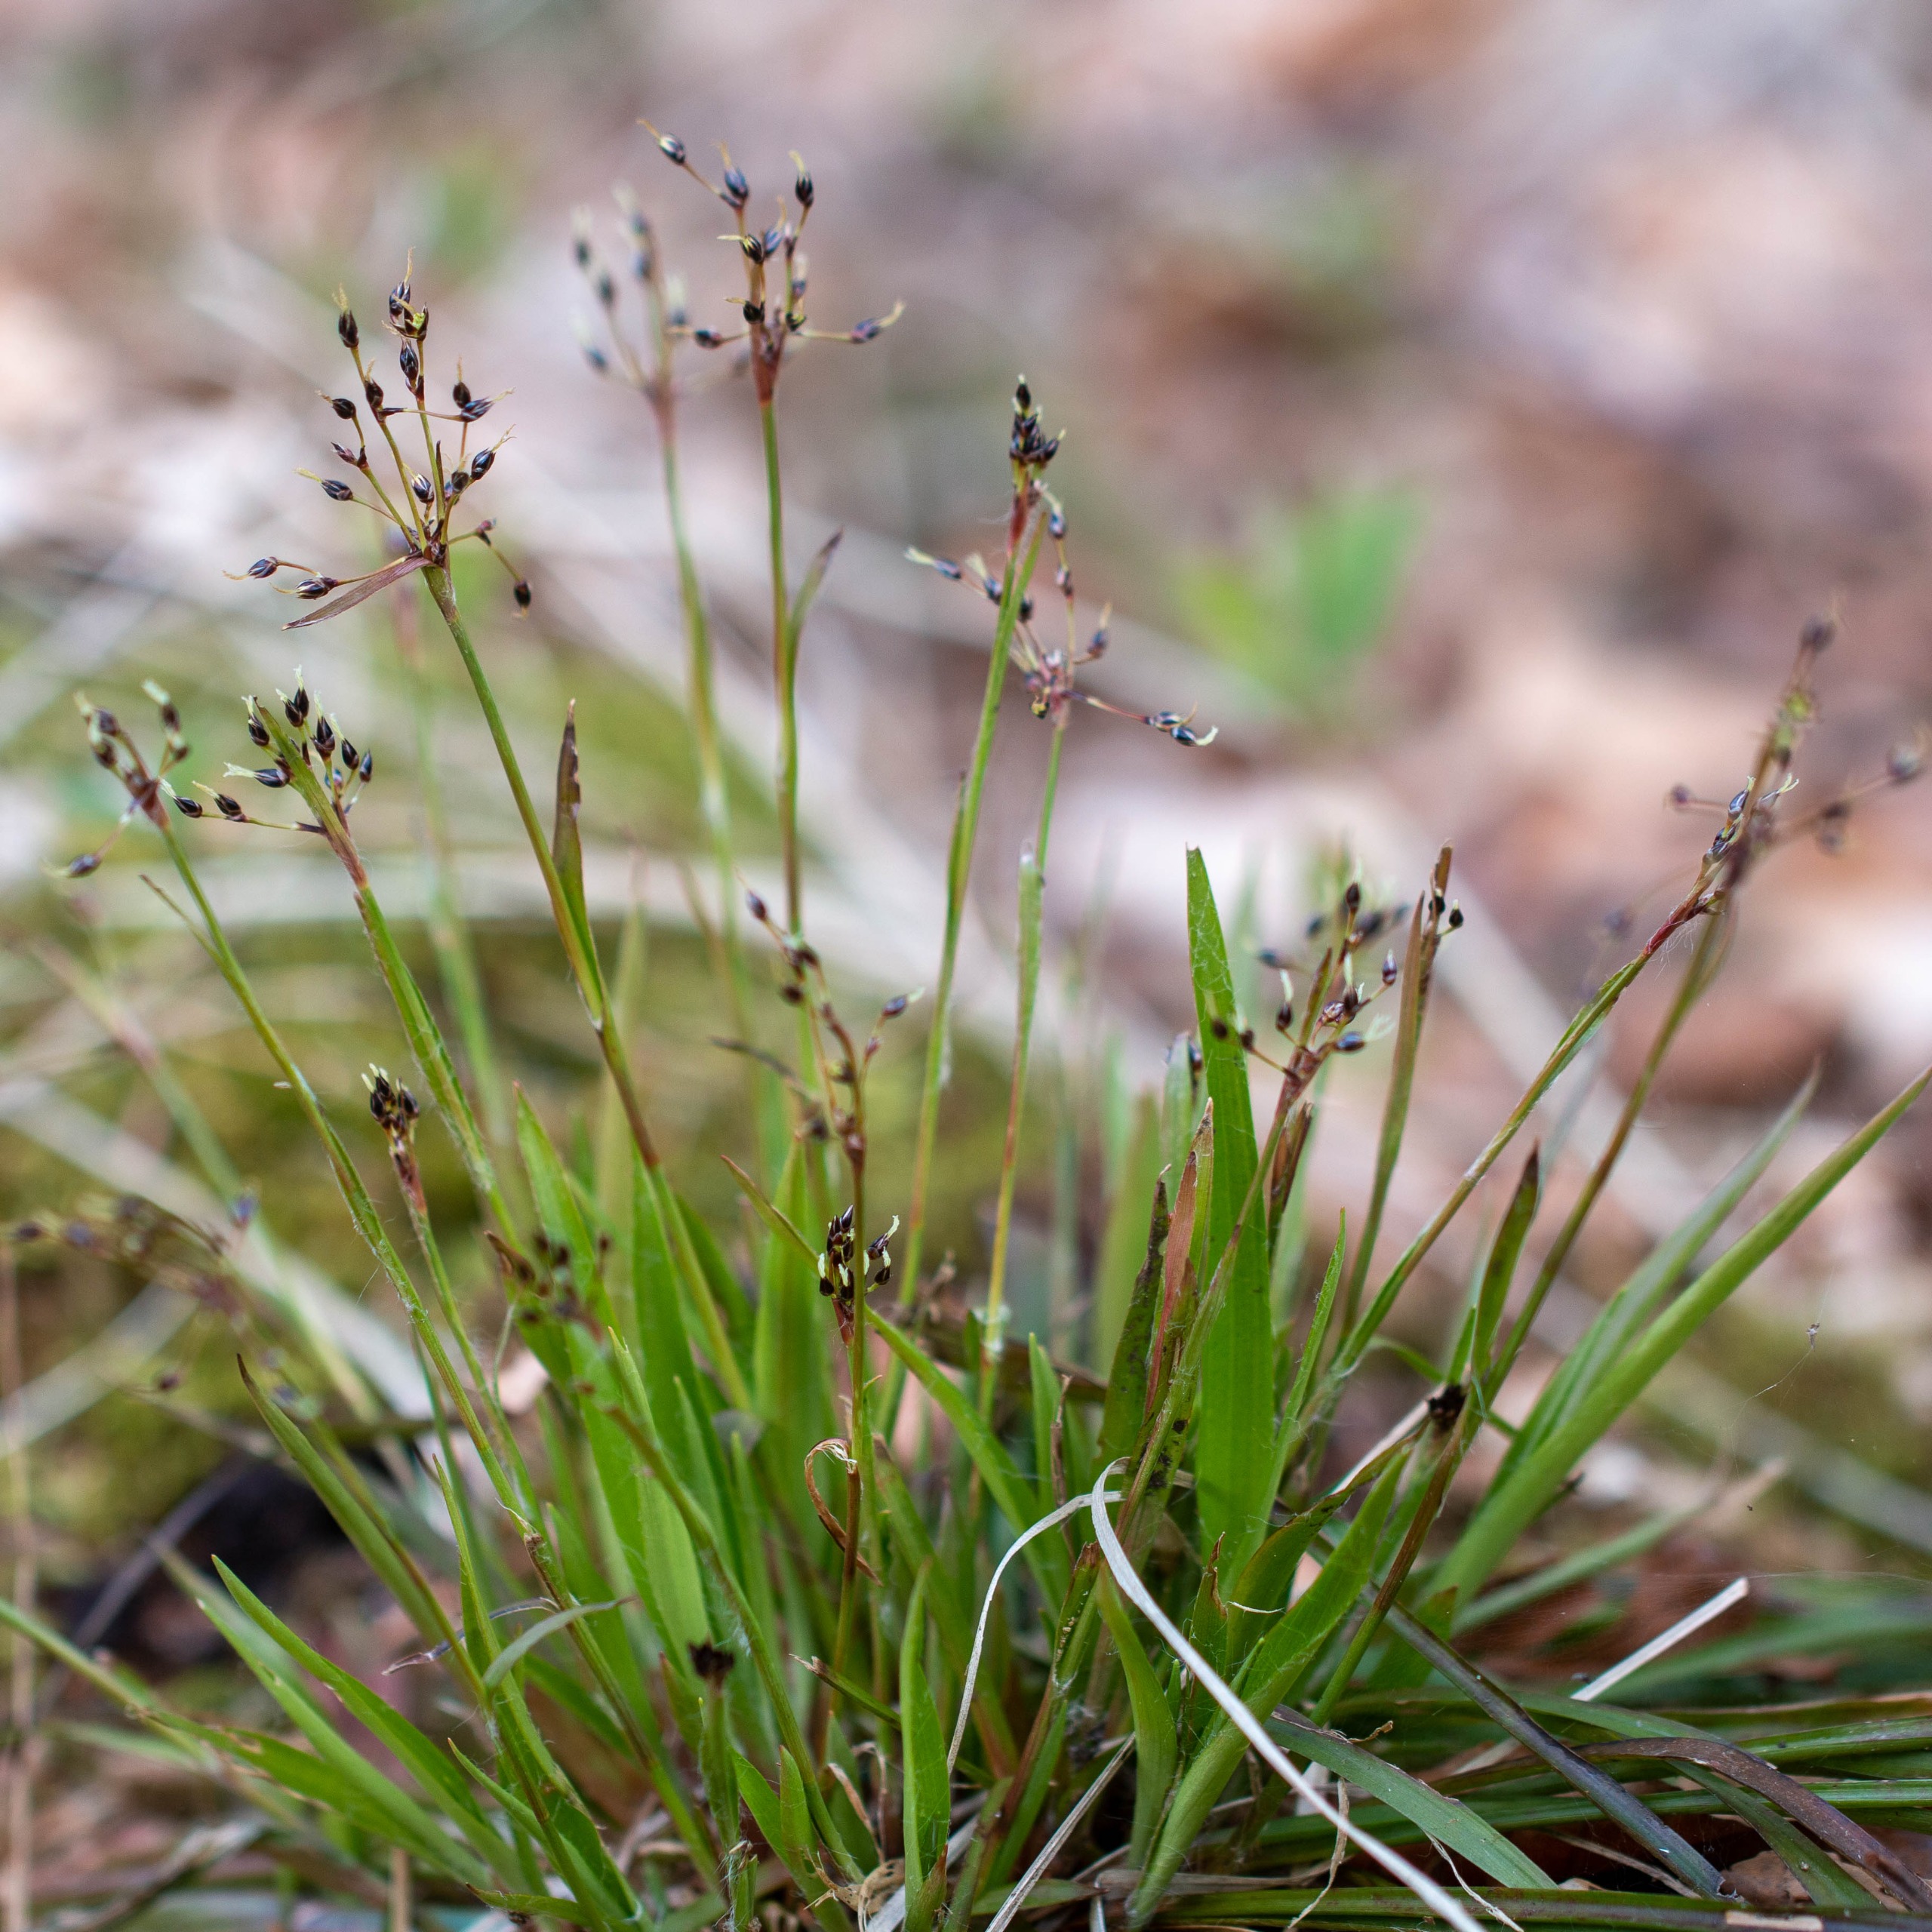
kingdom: Plantae
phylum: Tracheophyta
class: Liliopsida
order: Poales
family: Juncaceae
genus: Luzula
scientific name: Luzula pilosa
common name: Håret frytle
